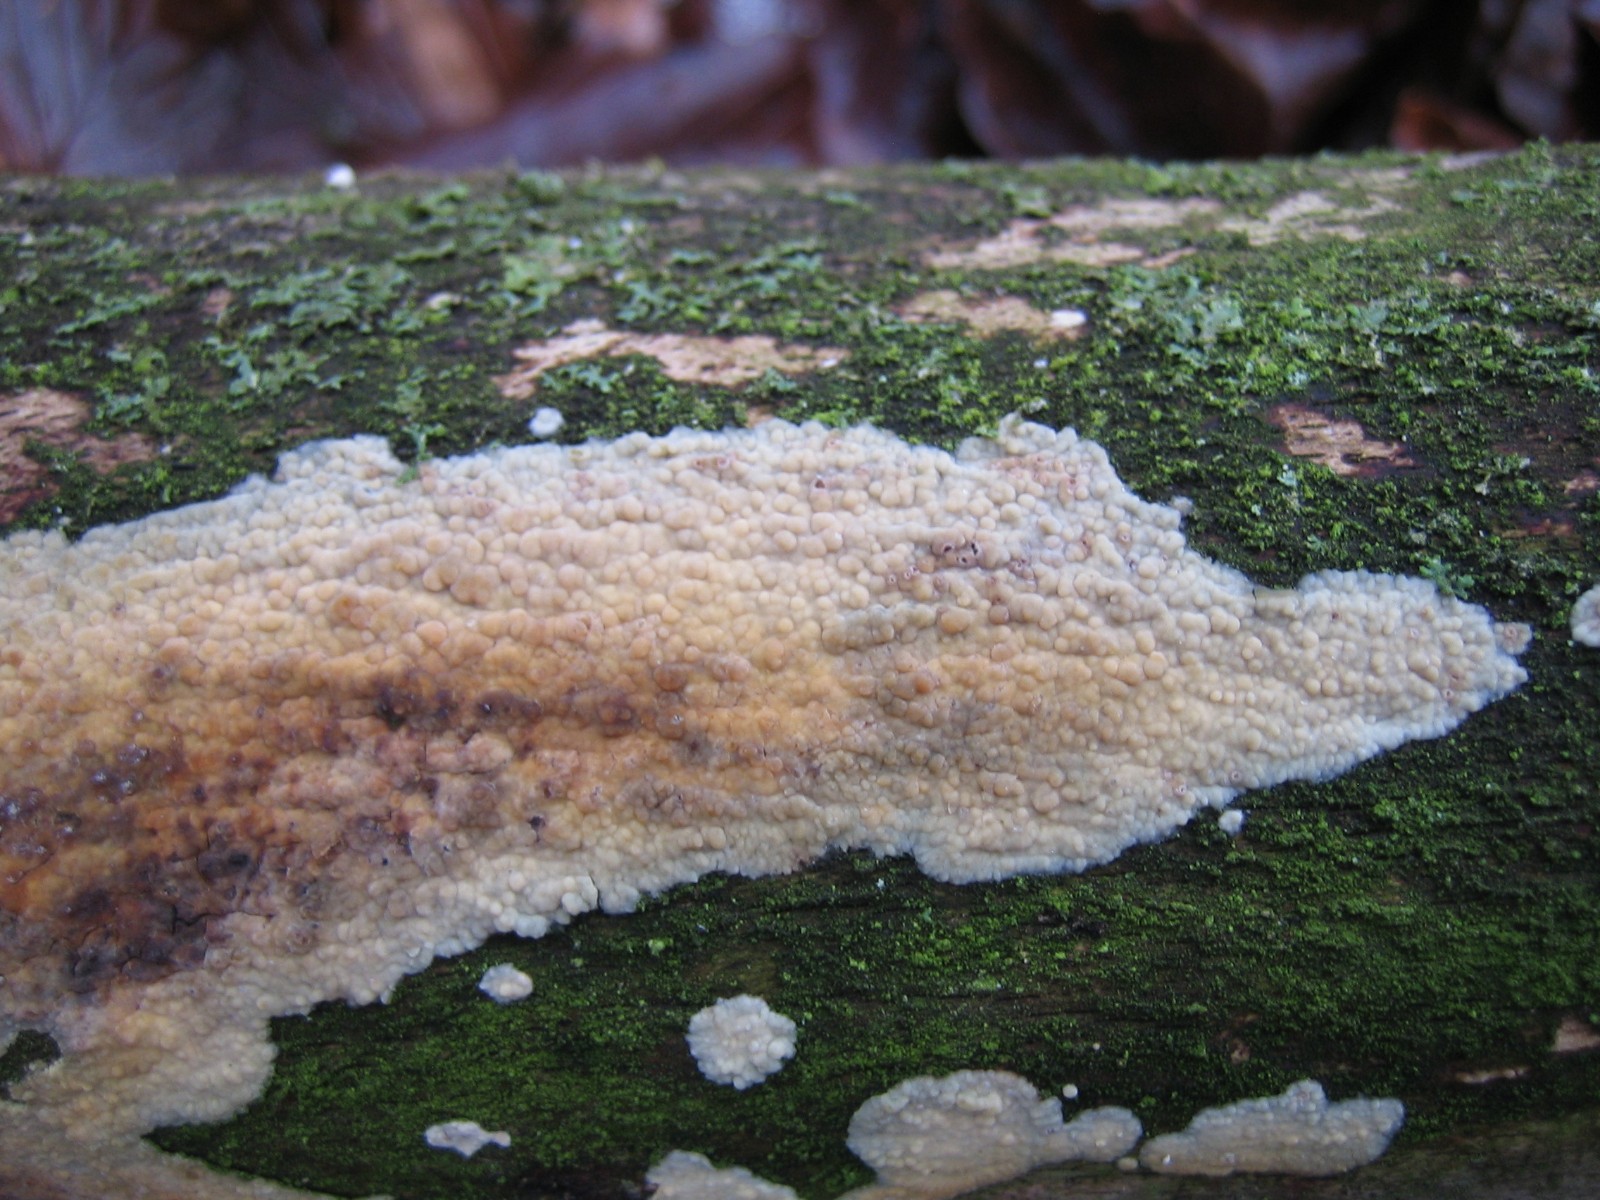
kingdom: Fungi
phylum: Basidiomycota
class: Agaricomycetes
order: Corticiales
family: Corticiaceae
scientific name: Corticiaceae
